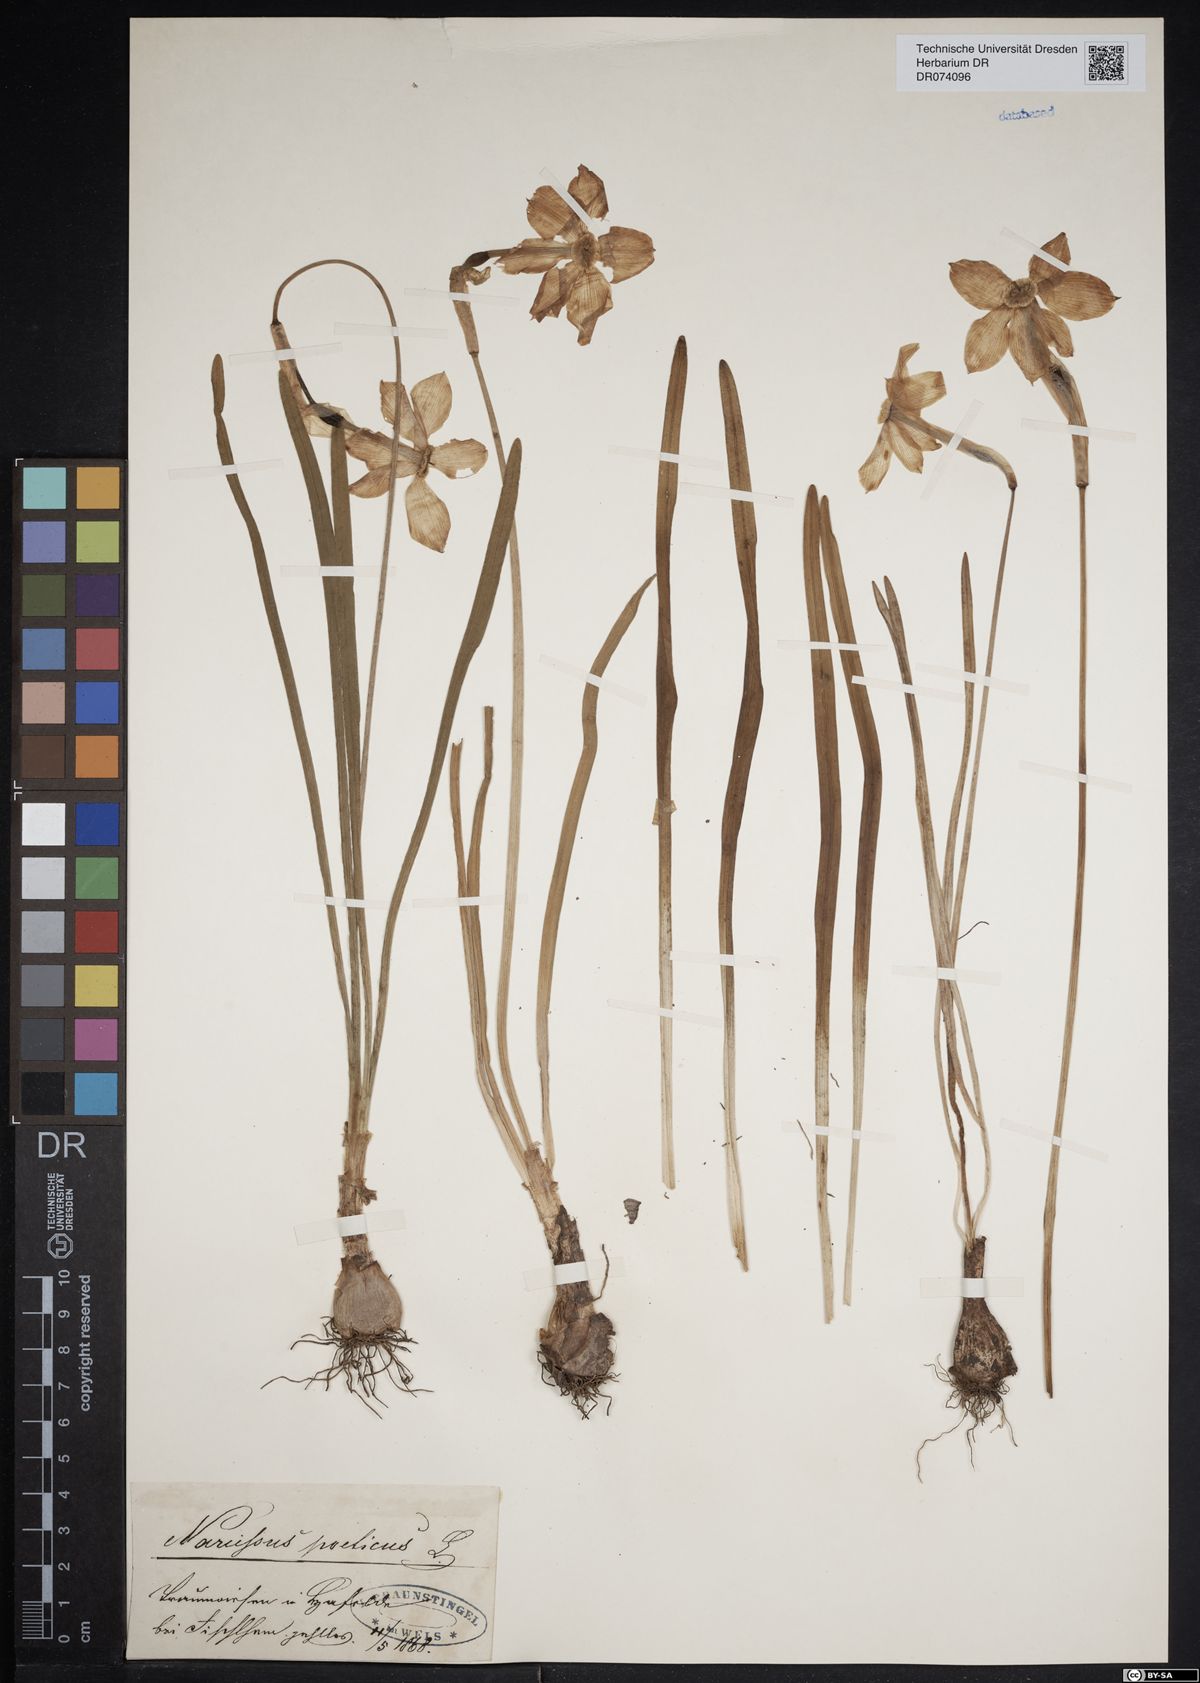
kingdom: Plantae
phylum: Tracheophyta
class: Liliopsida
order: Asparagales
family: Amaryllidaceae
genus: Narcissus
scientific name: Narcissus poeticus
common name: Pheasant's-eye daffodil
